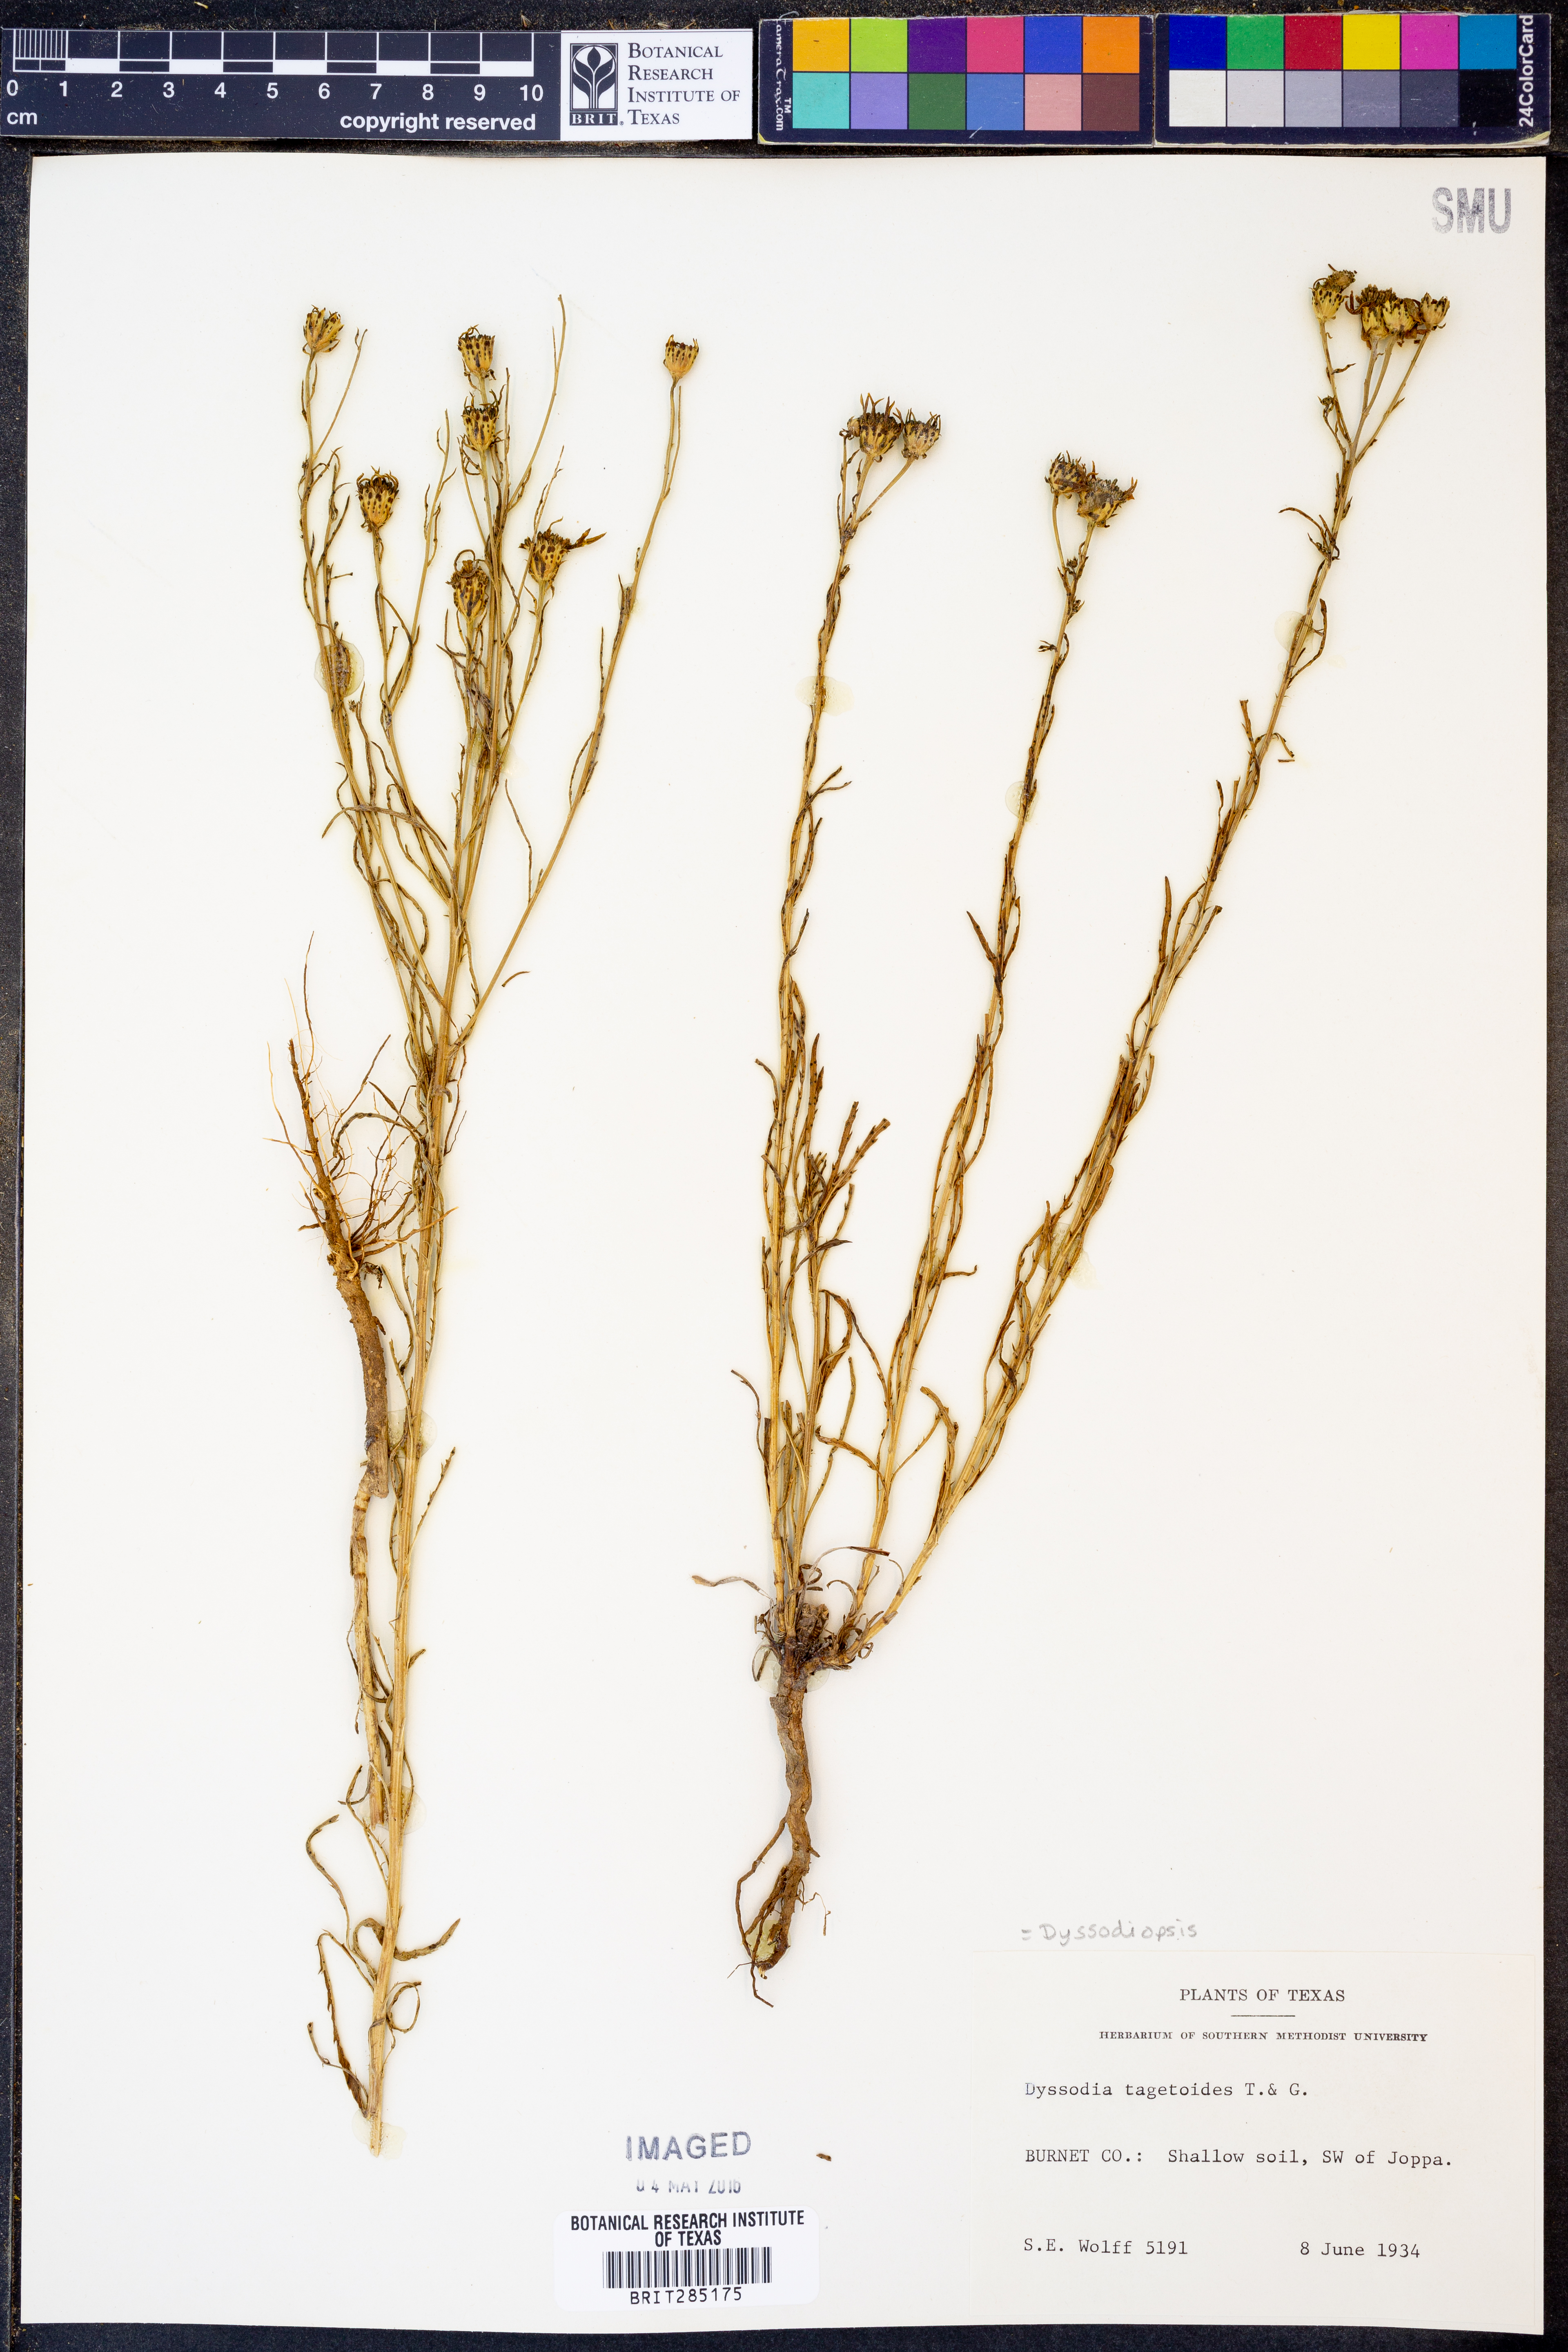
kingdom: Plantae
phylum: Tracheophyta
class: Magnoliopsida
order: Asterales
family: Asteraceae
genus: Dysodiopsis
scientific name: Dysodiopsis tagetoides
